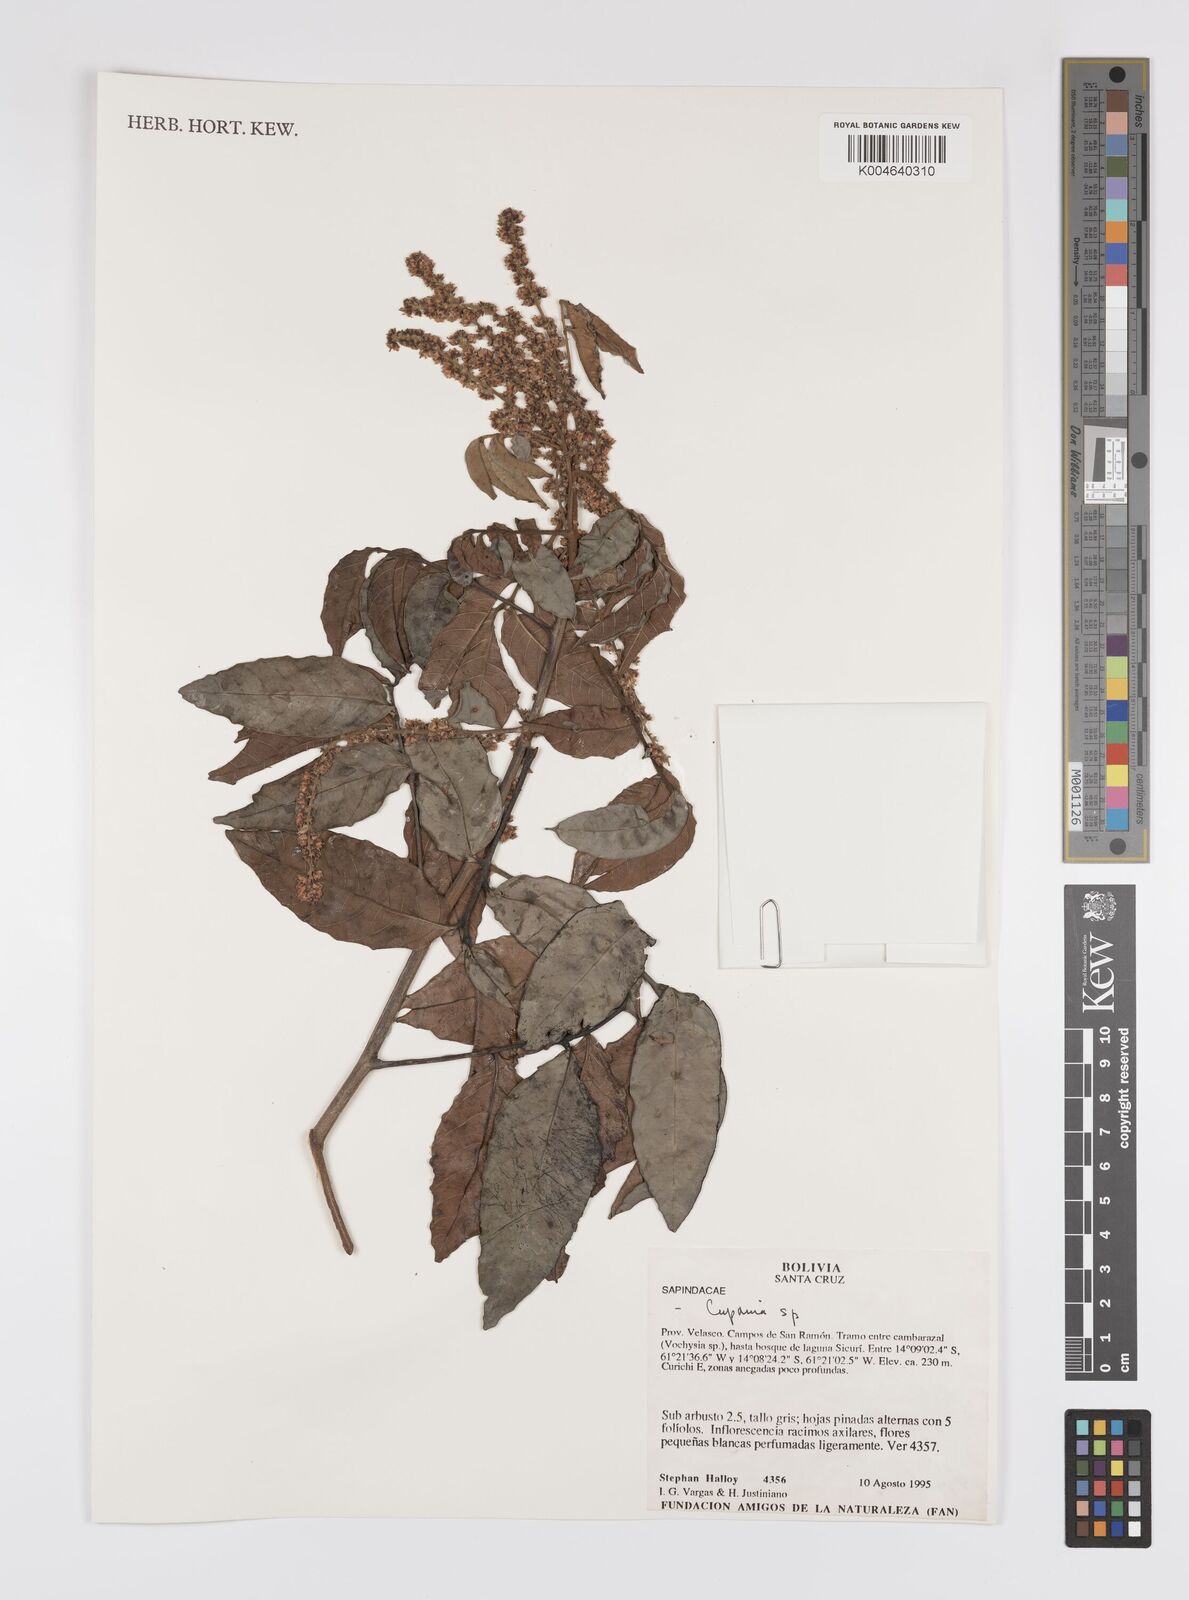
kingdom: Plantae
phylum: Tracheophyta
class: Magnoliopsida
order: Sapindales
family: Sapindaceae
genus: Cupania
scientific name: Cupania
